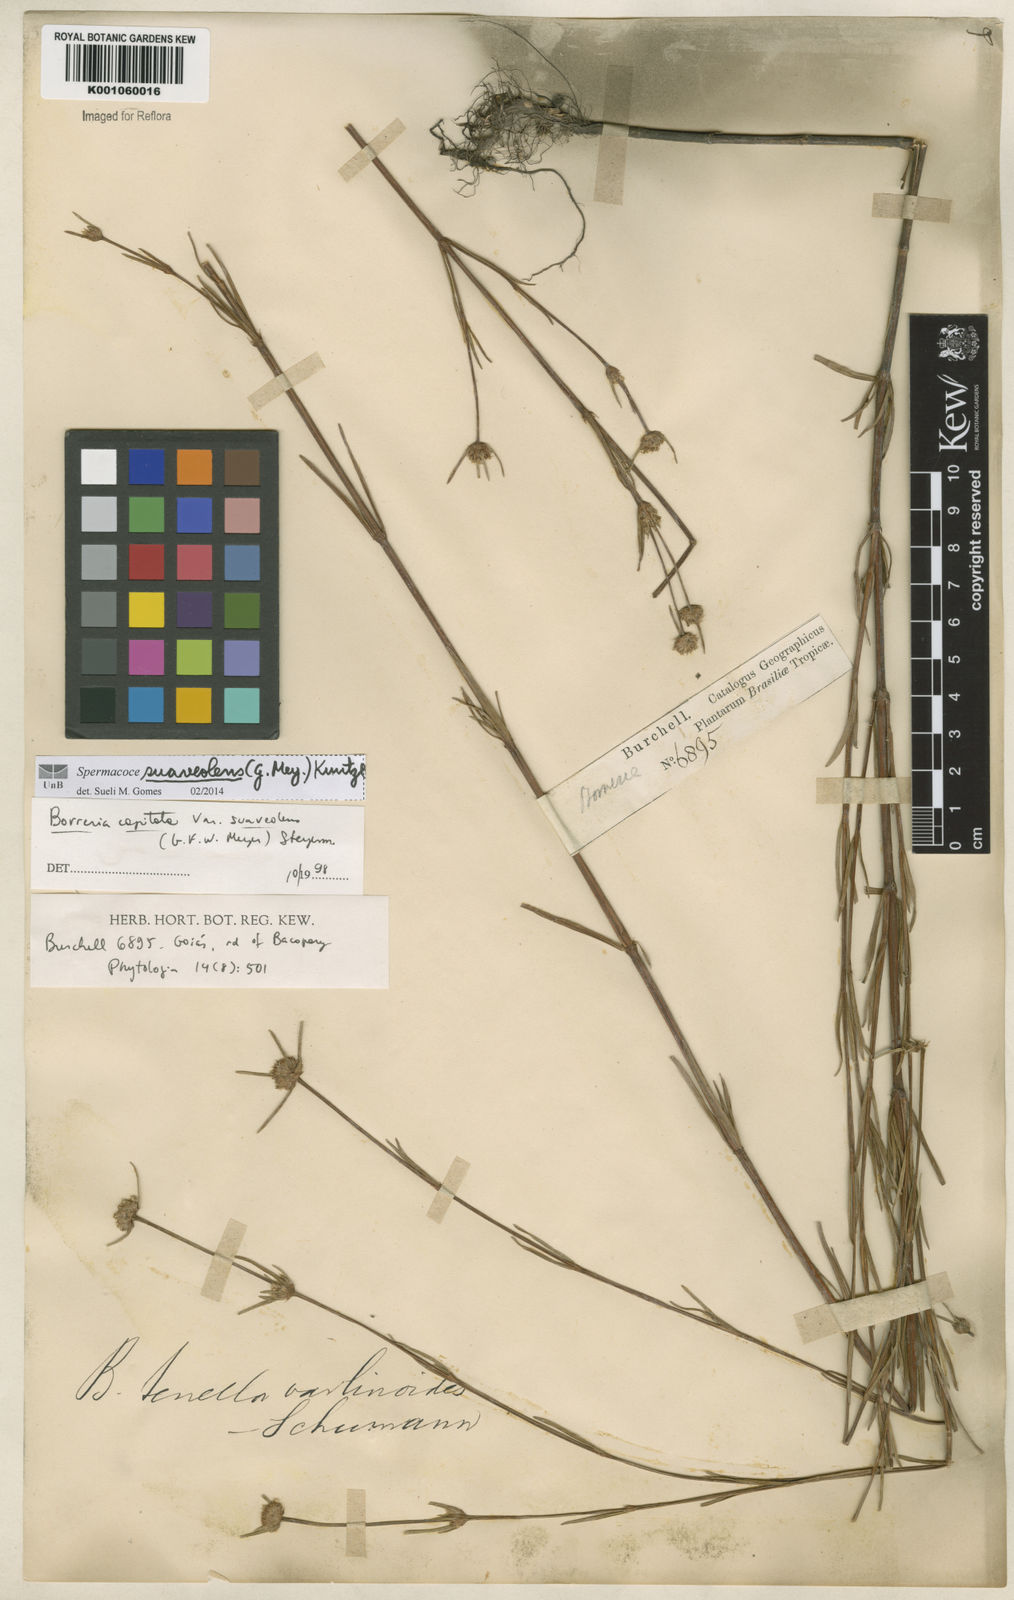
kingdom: Plantae
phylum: Tracheophyta
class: Magnoliopsida
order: Gentianales
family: Rubiaceae
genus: Spermacoce
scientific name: Spermacoce suaveolens
